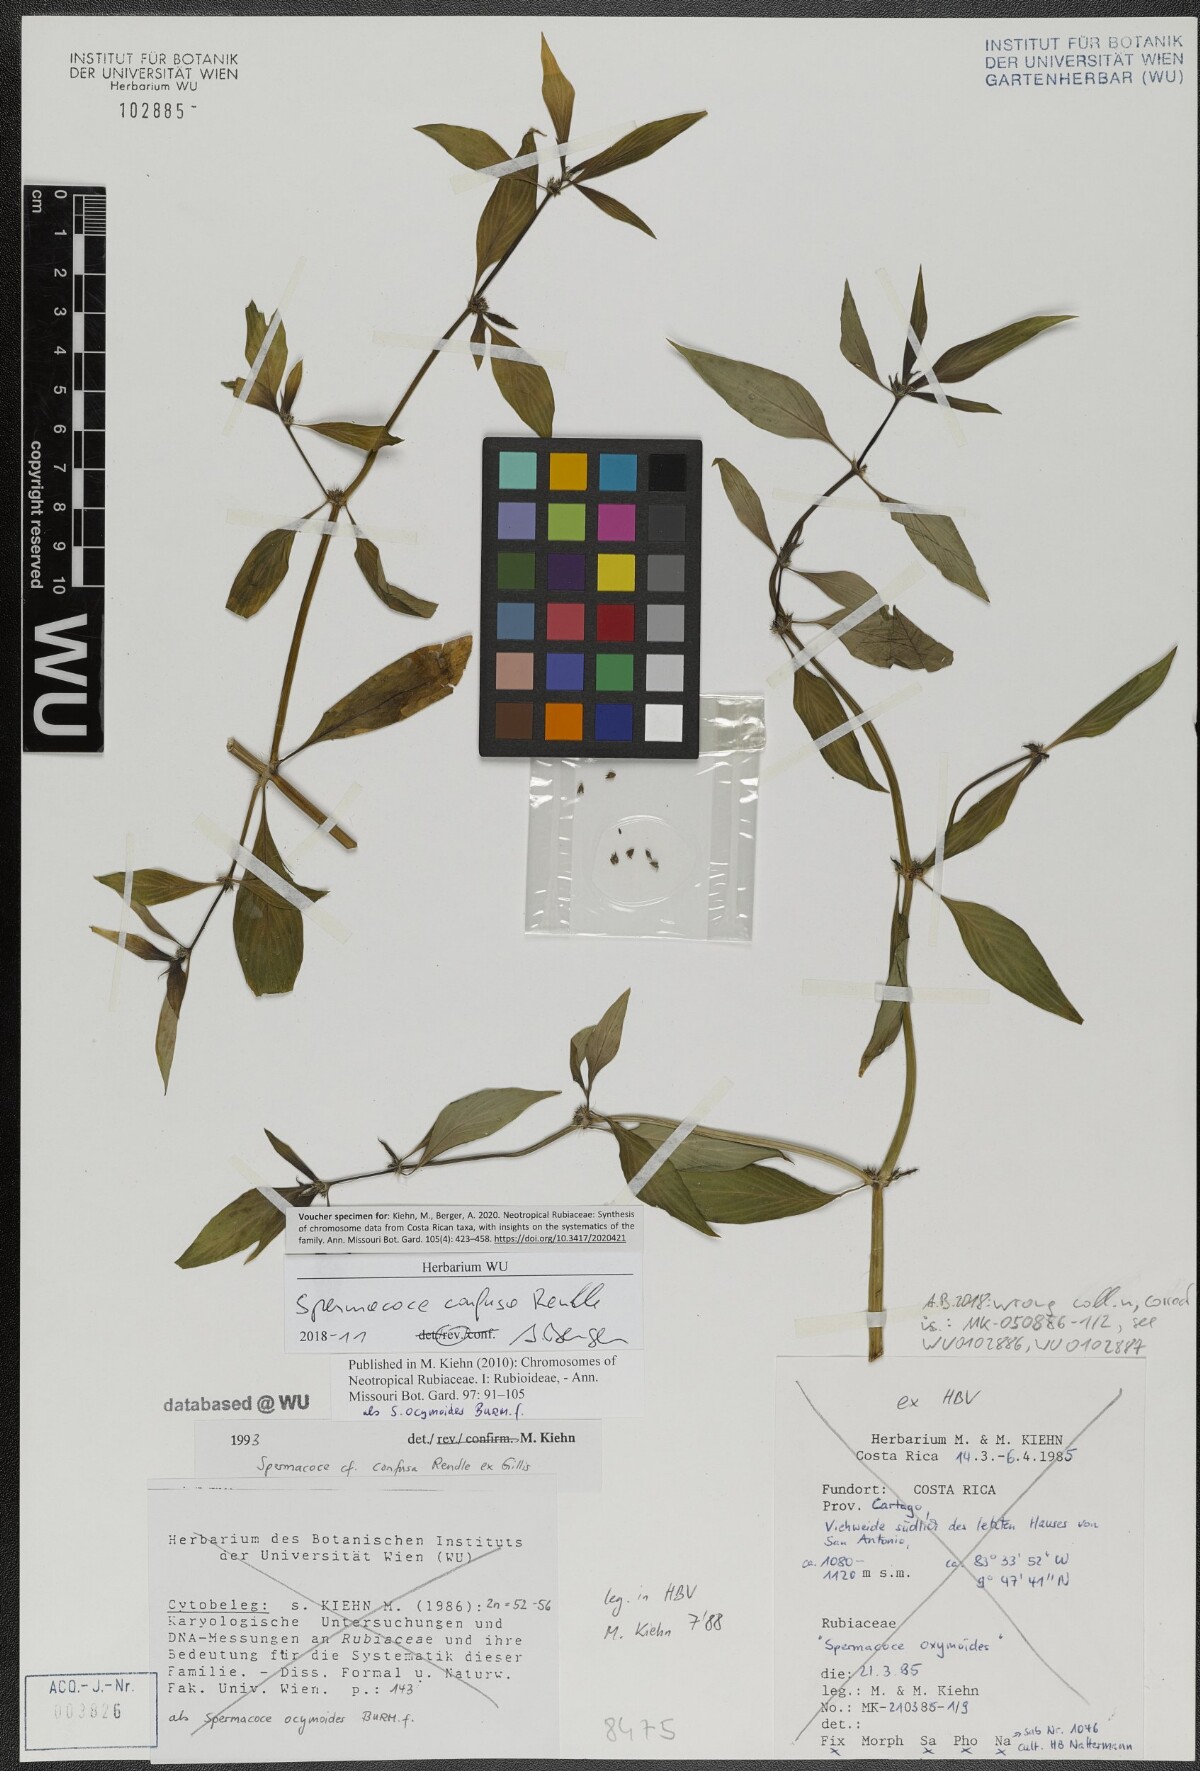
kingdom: Plantae
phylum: Tracheophyta
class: Magnoliopsida
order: Gentianales
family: Rubiaceae
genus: Spermacoce
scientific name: Spermacoce confusa
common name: Iron-grass
